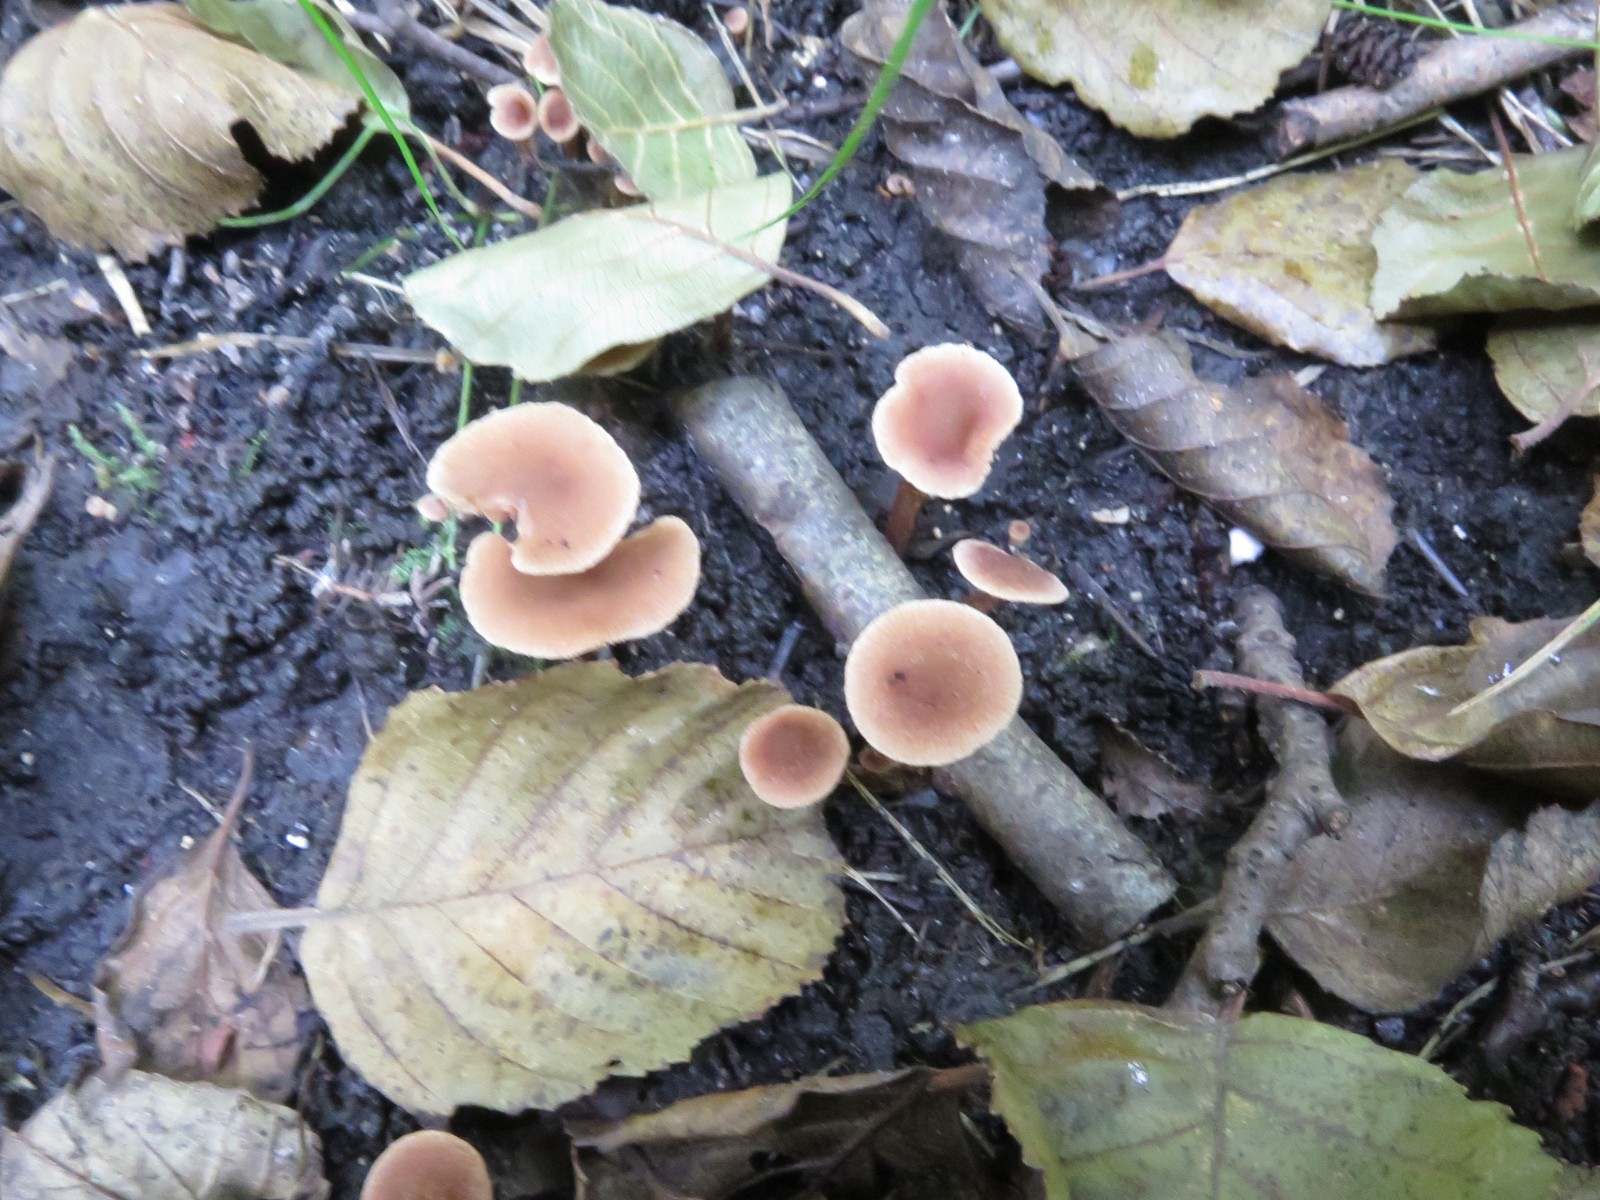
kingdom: Fungi
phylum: Basidiomycota
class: Agaricomycetes
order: Agaricales
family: Hymenogastraceae
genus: Naucoria
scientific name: Naucoria scolecina
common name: mørk elle-knaphat
